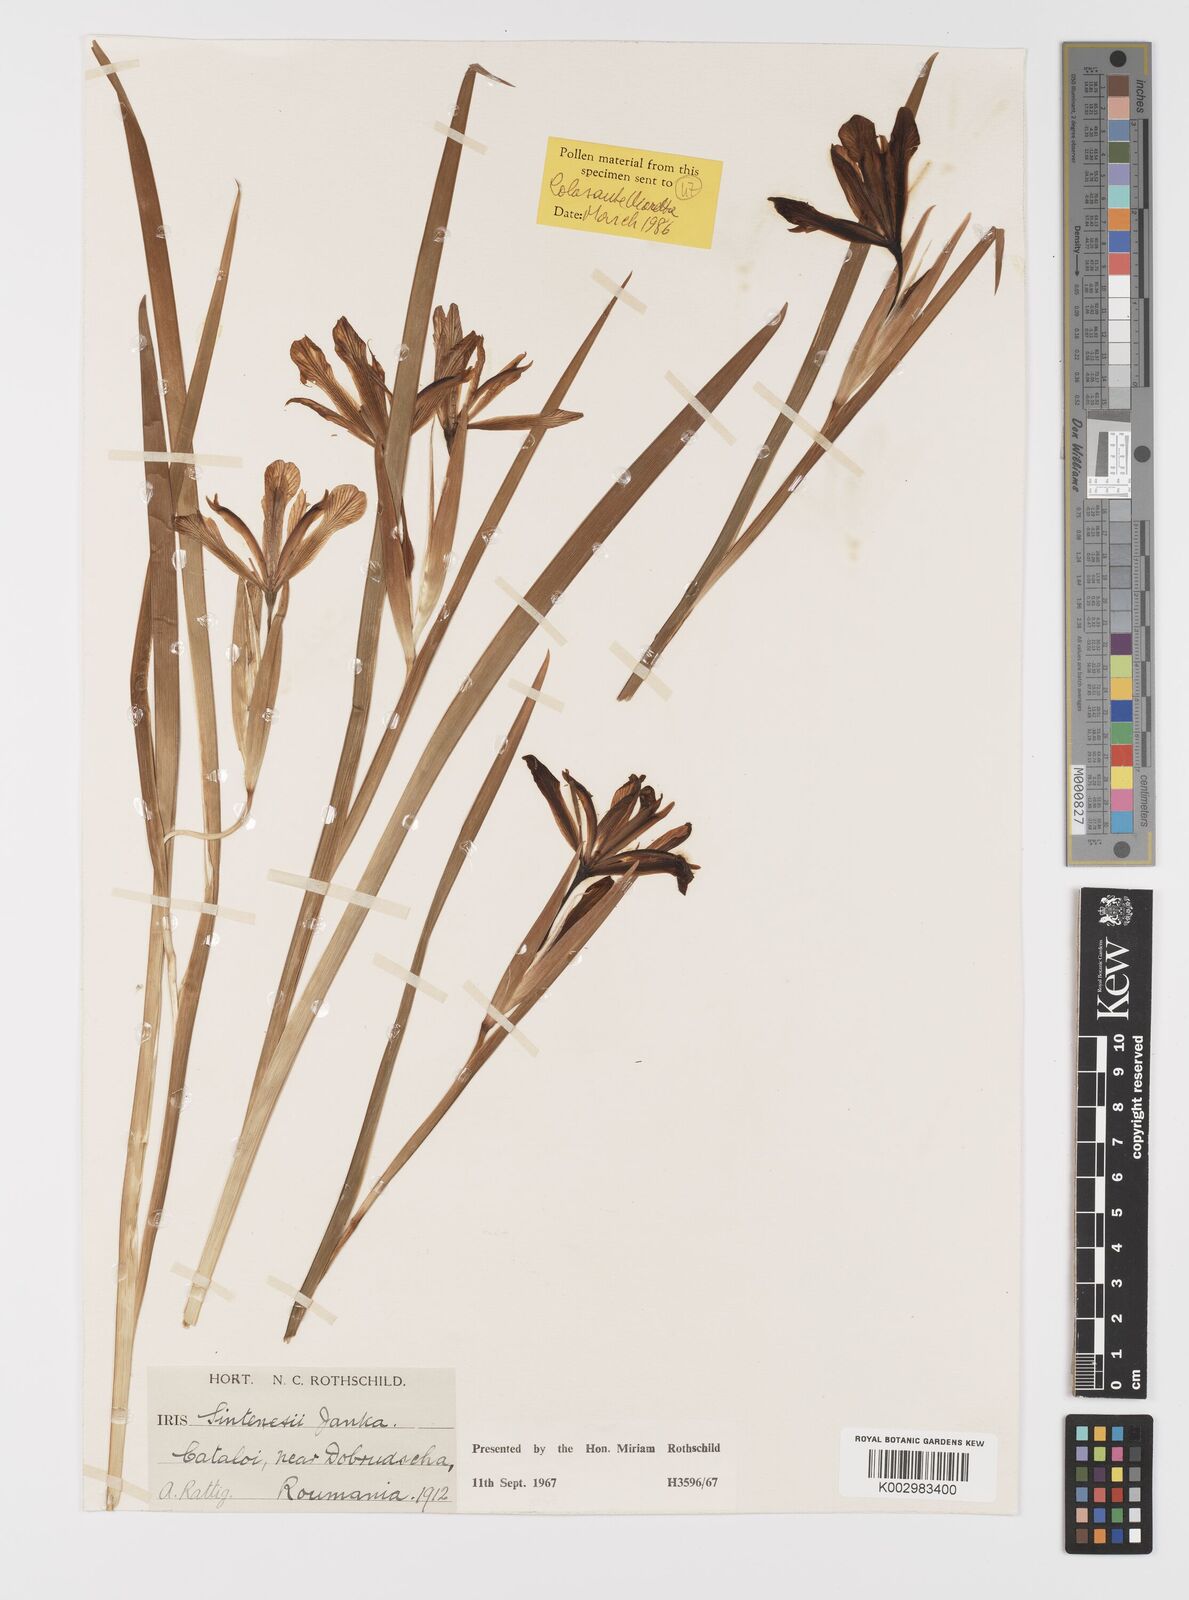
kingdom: Plantae
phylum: Tracheophyta
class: Liliopsida
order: Asparagales
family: Iridaceae
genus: Iris
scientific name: Iris sintenisii
